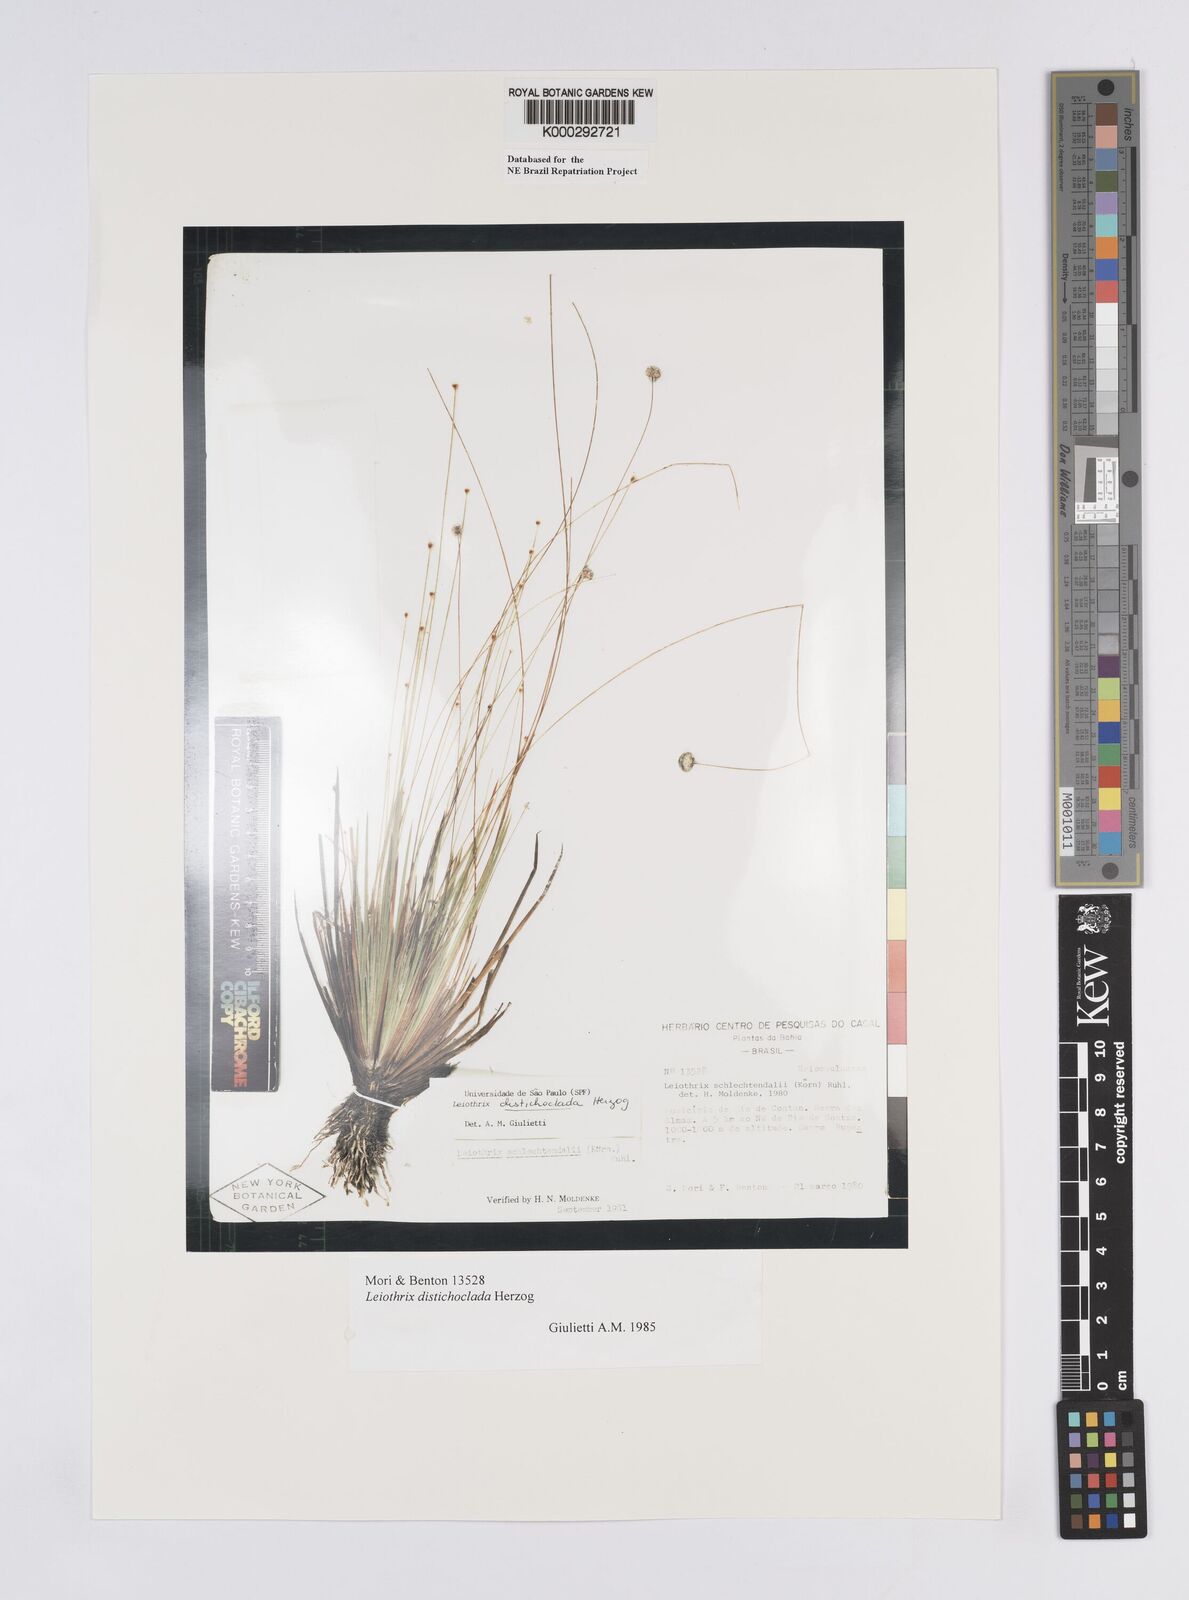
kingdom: Plantae
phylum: Tracheophyta
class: Liliopsida
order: Poales
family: Eriocaulaceae
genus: Leiothrix
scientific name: Leiothrix distichoclada
